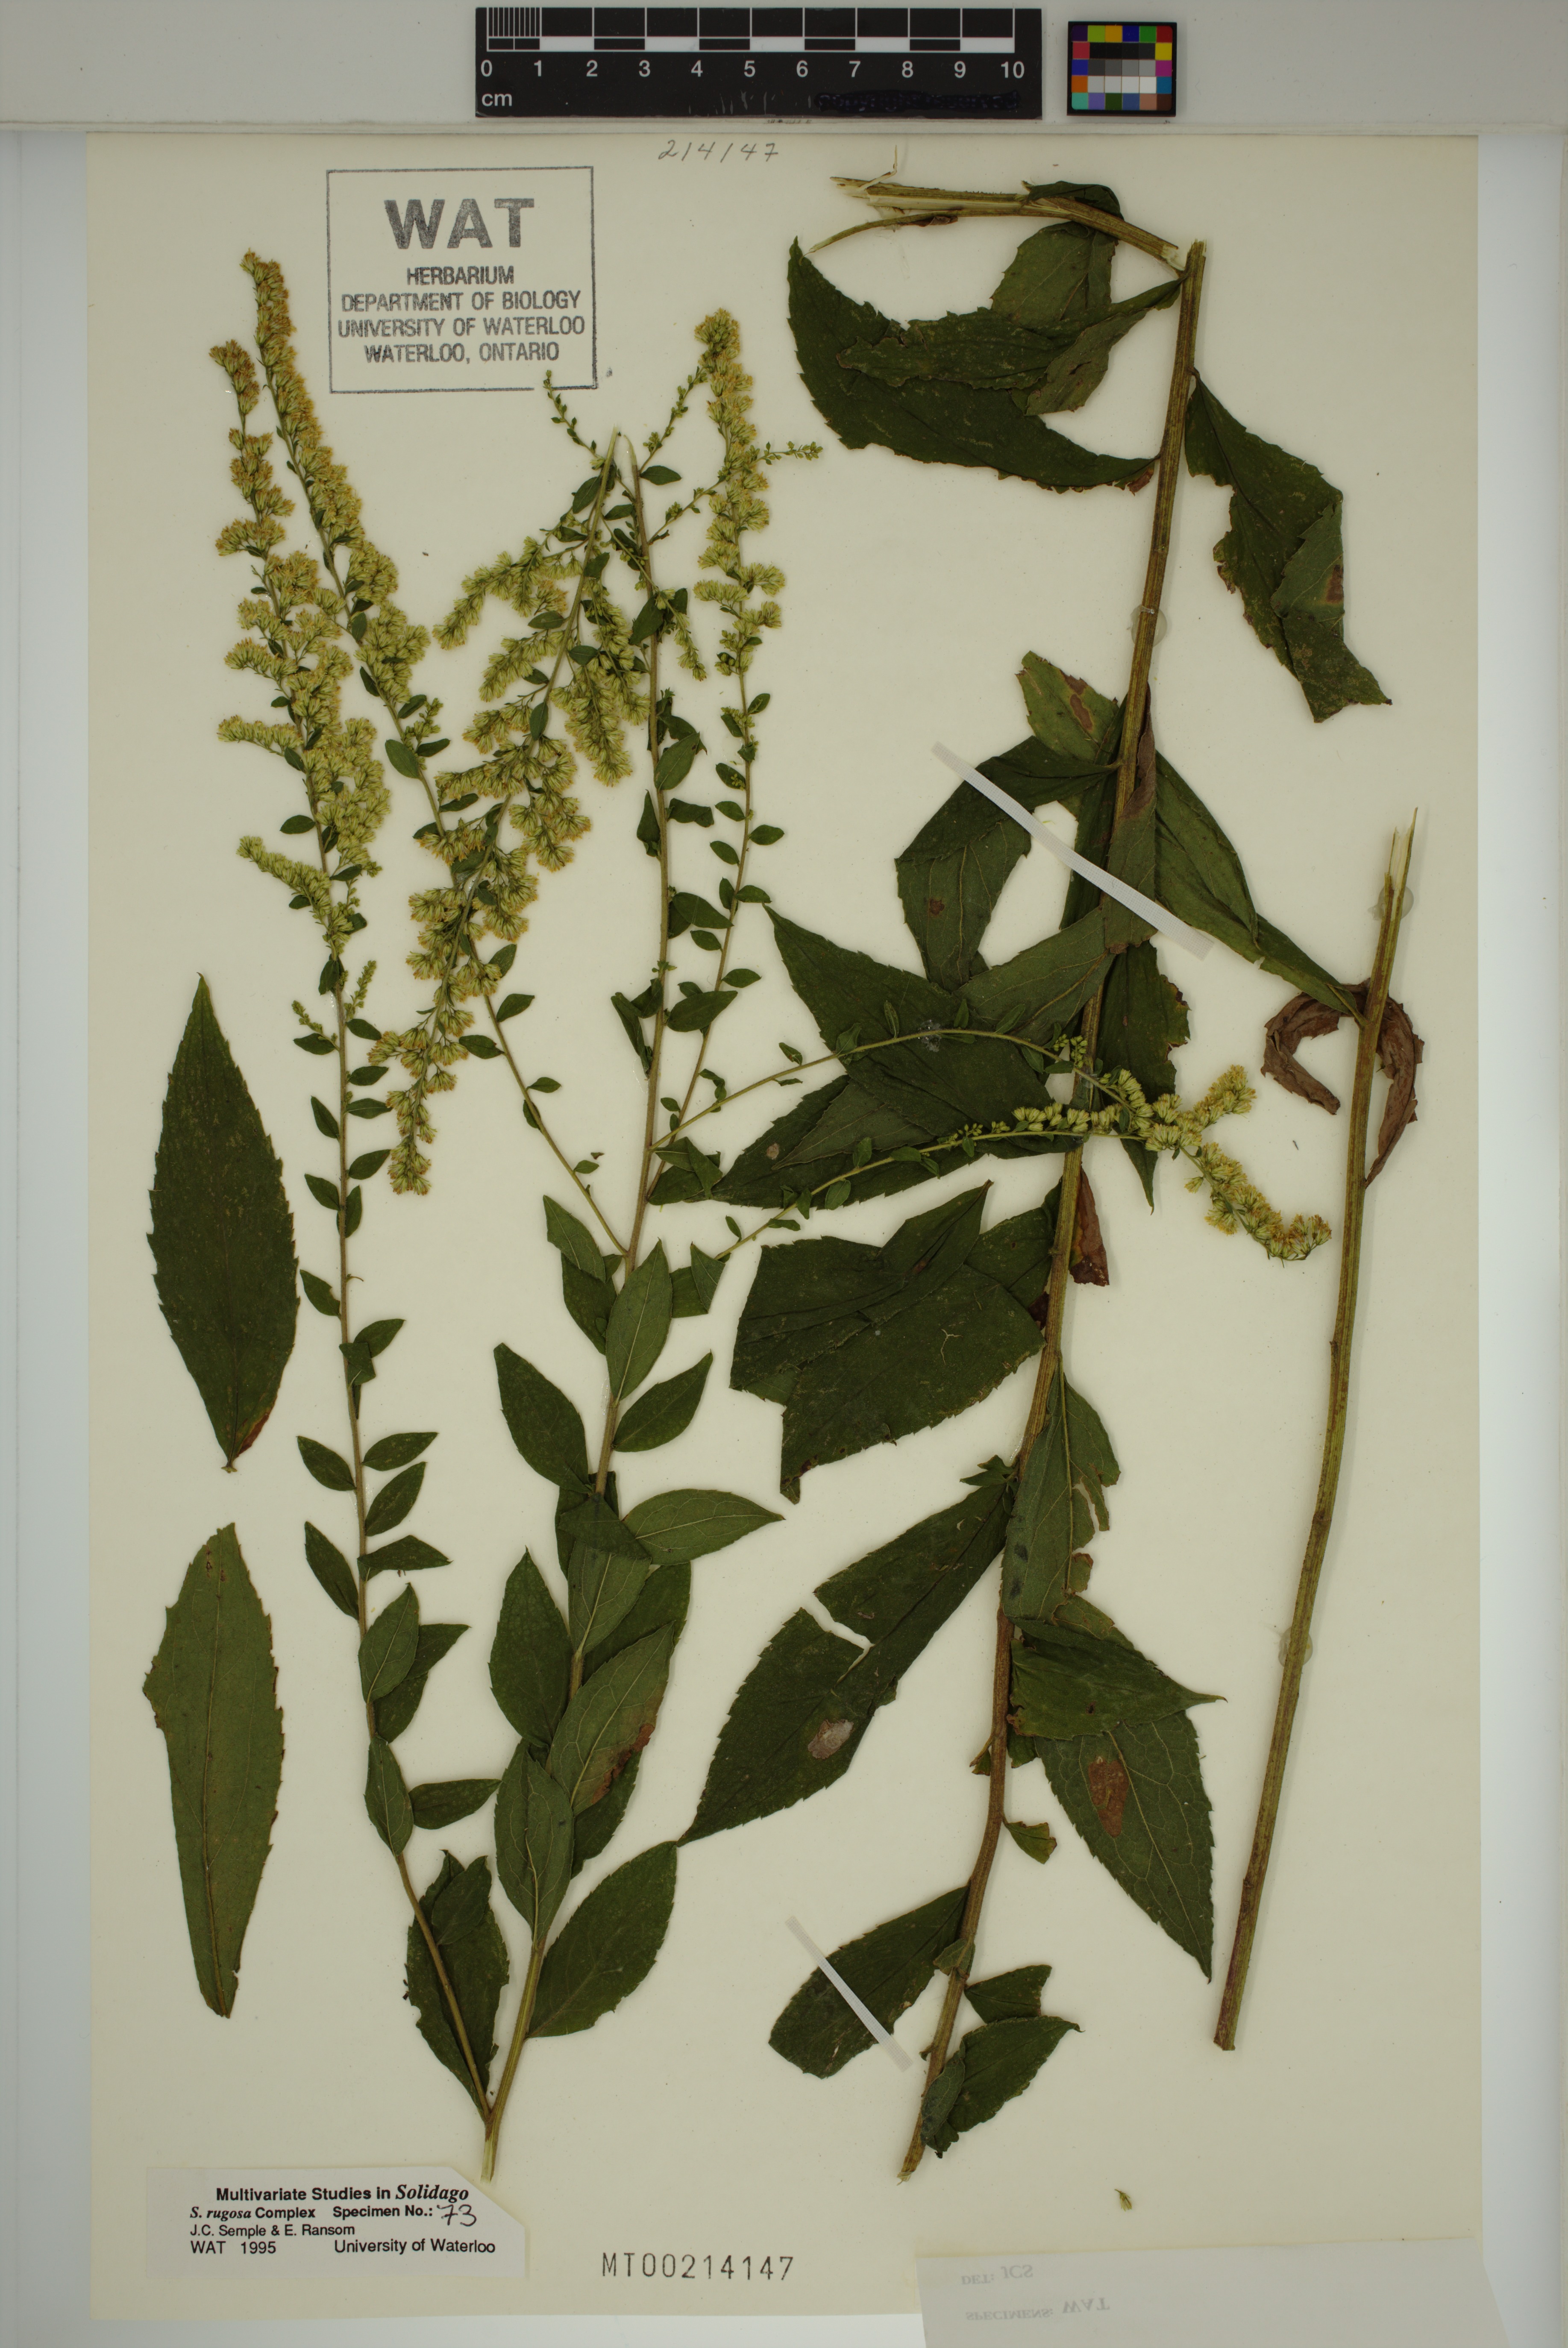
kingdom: Plantae
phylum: Tracheophyta
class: Magnoliopsida
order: Asterales
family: Asteraceae
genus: Solidago
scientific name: Solidago rugosa
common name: Rough-stemmed goldenrod
